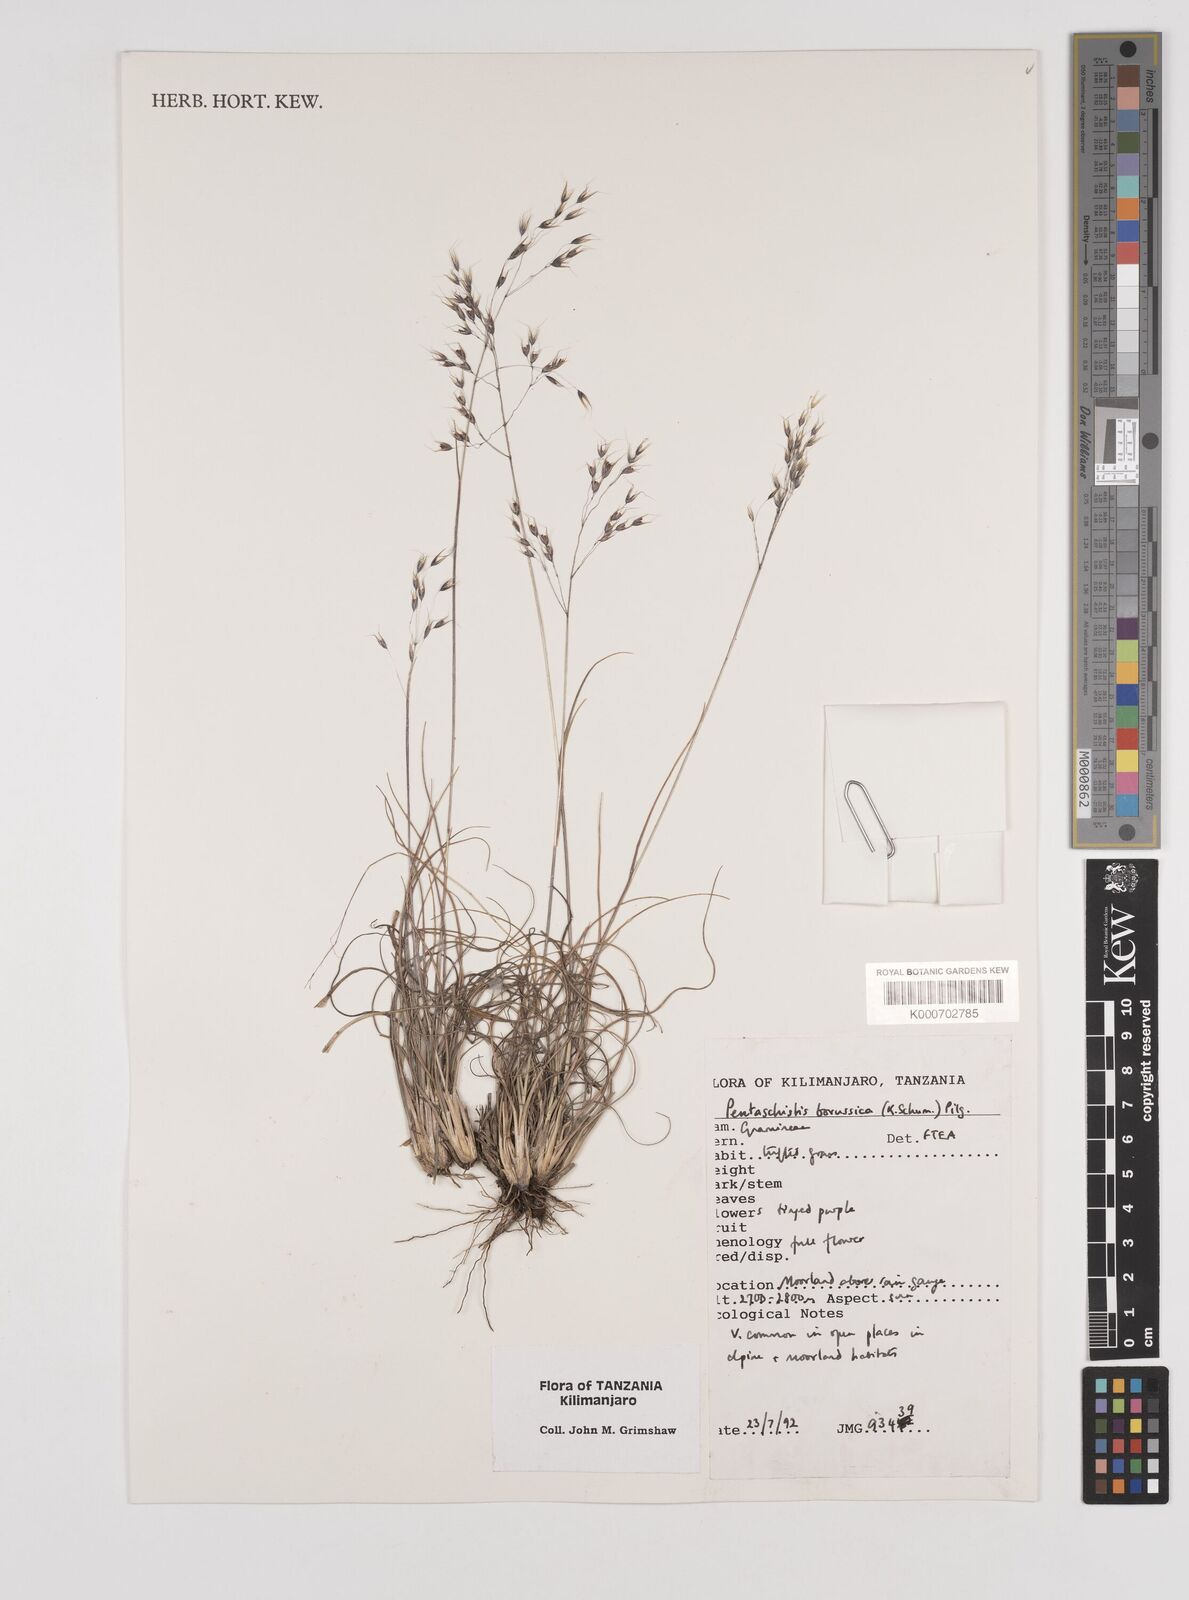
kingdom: Plantae
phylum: Tracheophyta
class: Liliopsida
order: Poales
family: Poaceae
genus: Pentameris
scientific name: Pentameris borussica
